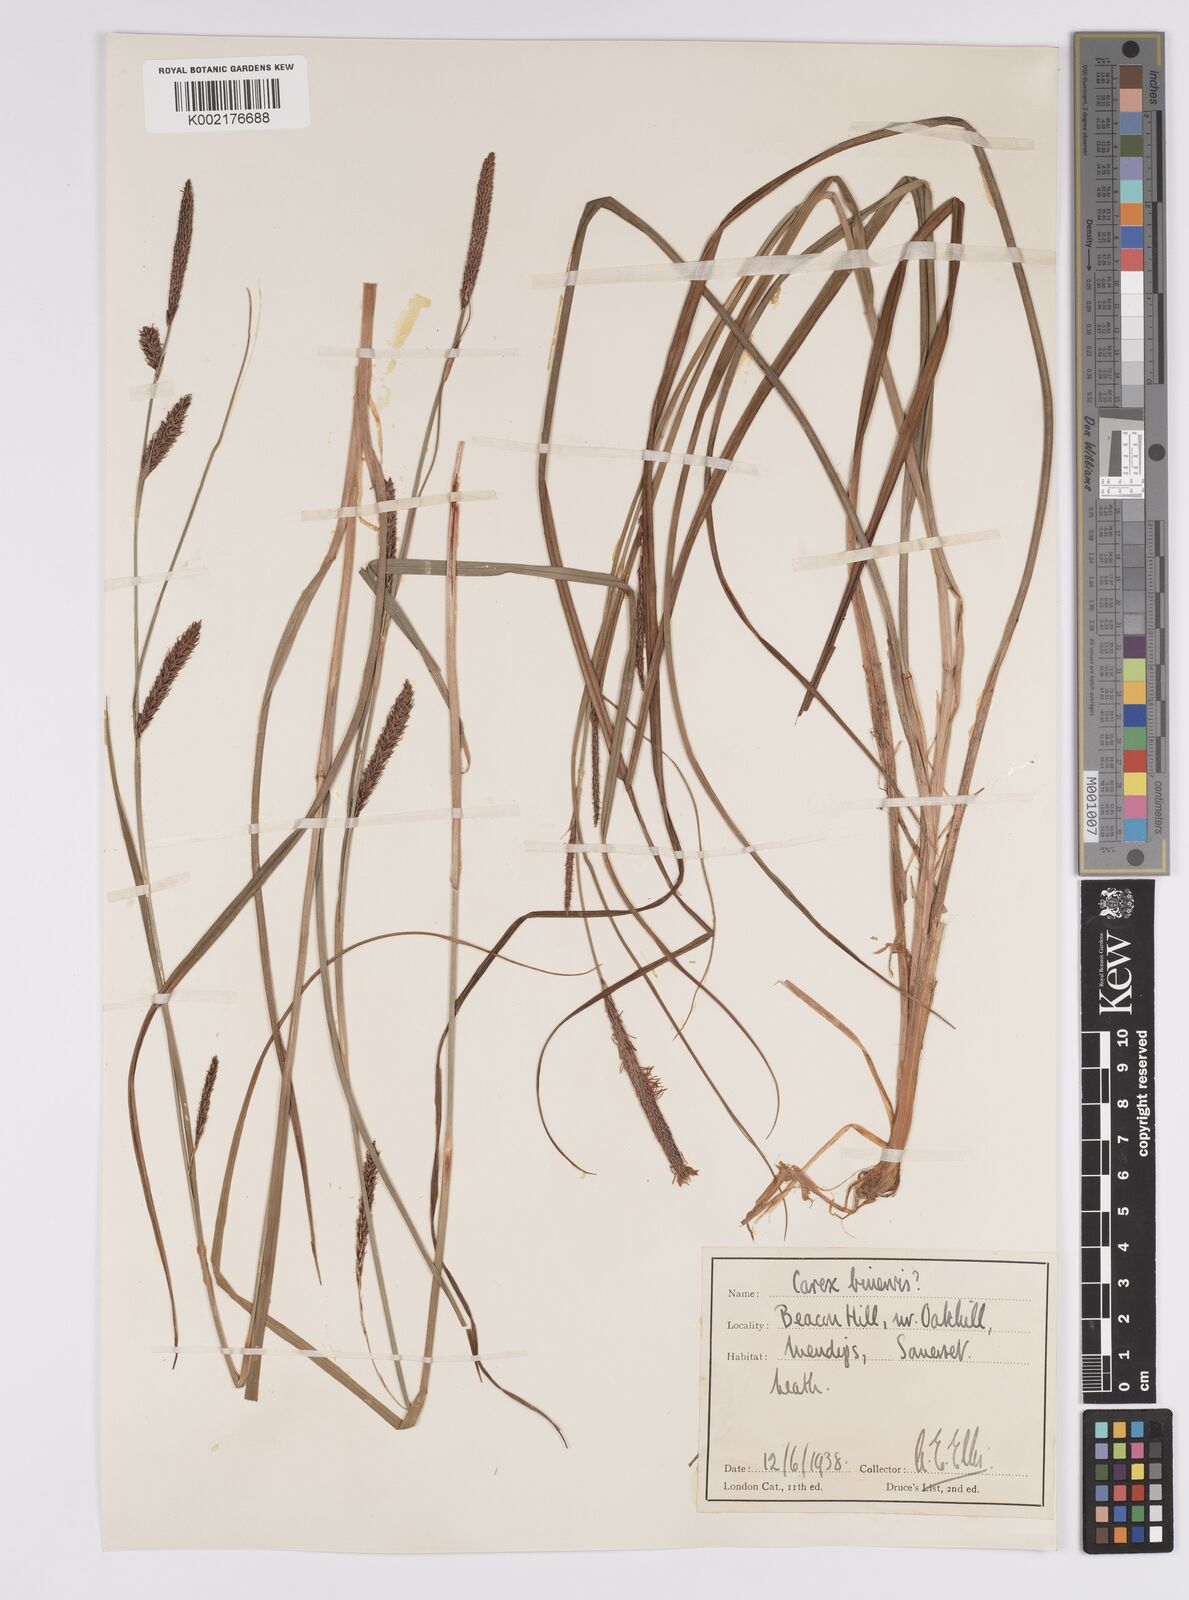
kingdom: Plantae
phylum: Tracheophyta
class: Liliopsida
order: Poales
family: Cyperaceae
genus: Carex
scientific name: Carex binervis
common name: Green-ribbed sedge
